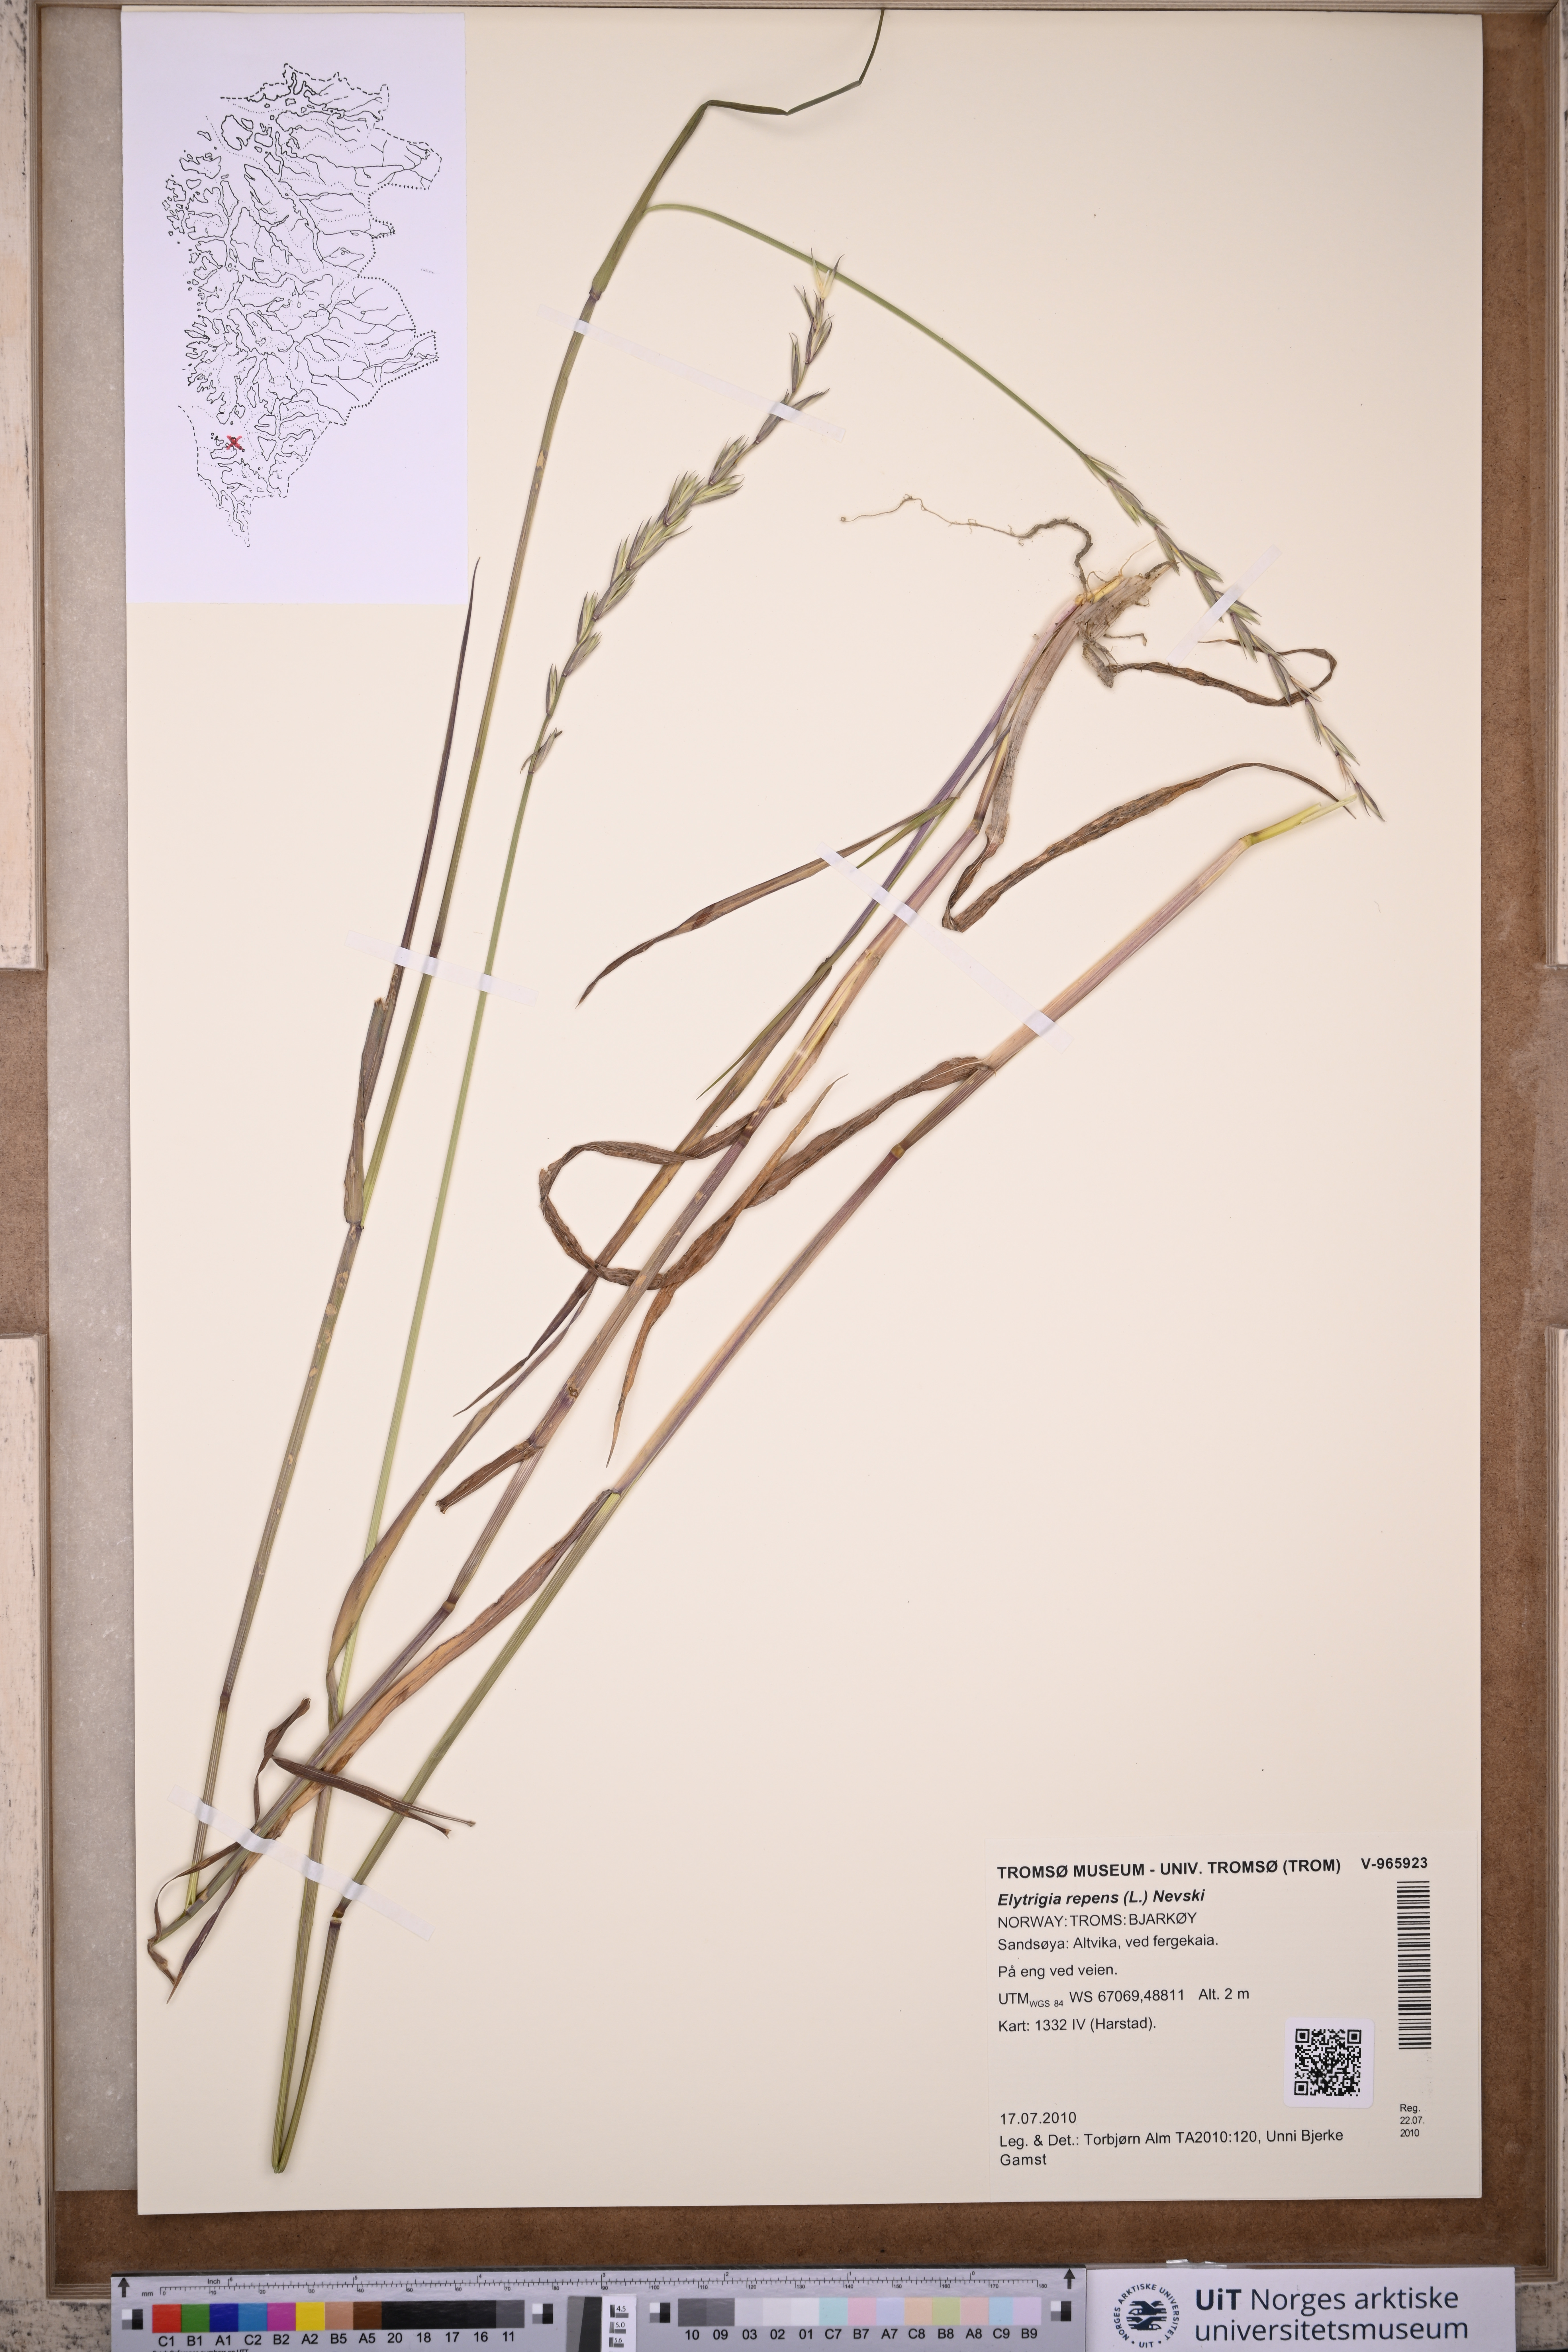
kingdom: Plantae
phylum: Tracheophyta
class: Liliopsida
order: Poales
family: Poaceae
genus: Elymus
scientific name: Elymus repens
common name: Quackgrass
